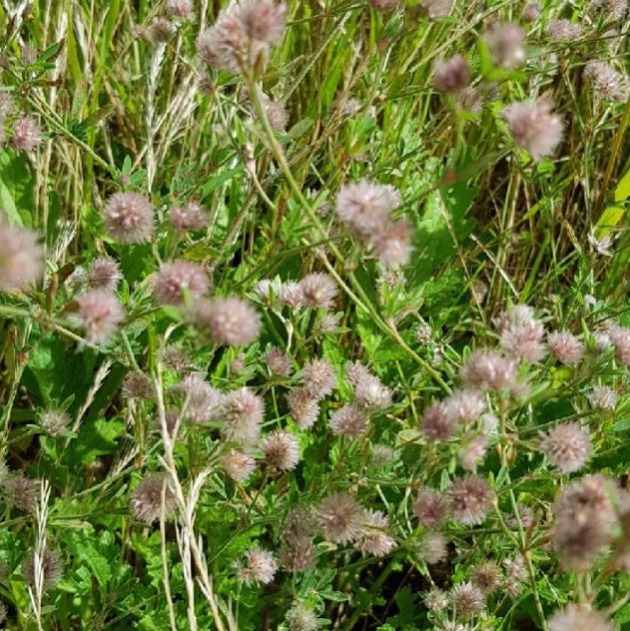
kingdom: Plantae
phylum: Tracheophyta
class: Magnoliopsida
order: Fabales
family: Fabaceae
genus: Trifolium
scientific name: Trifolium arvense
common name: Hare-kløver
